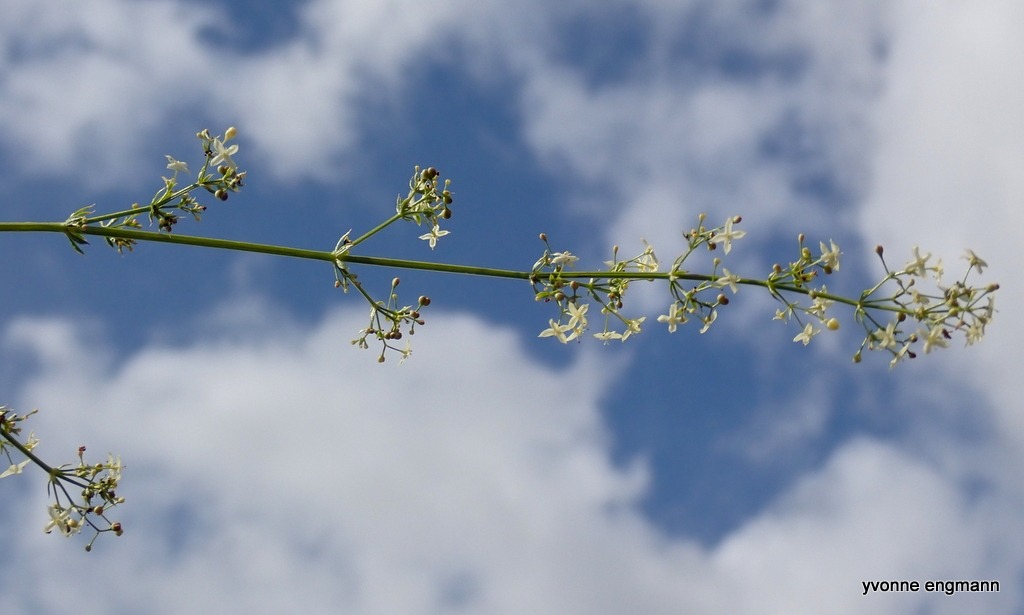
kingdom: Plantae
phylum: Tracheophyta
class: Magnoliopsida
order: Gentianales
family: Rubiaceae
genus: Galium
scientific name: Galium mollugo
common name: Hvid snerre
